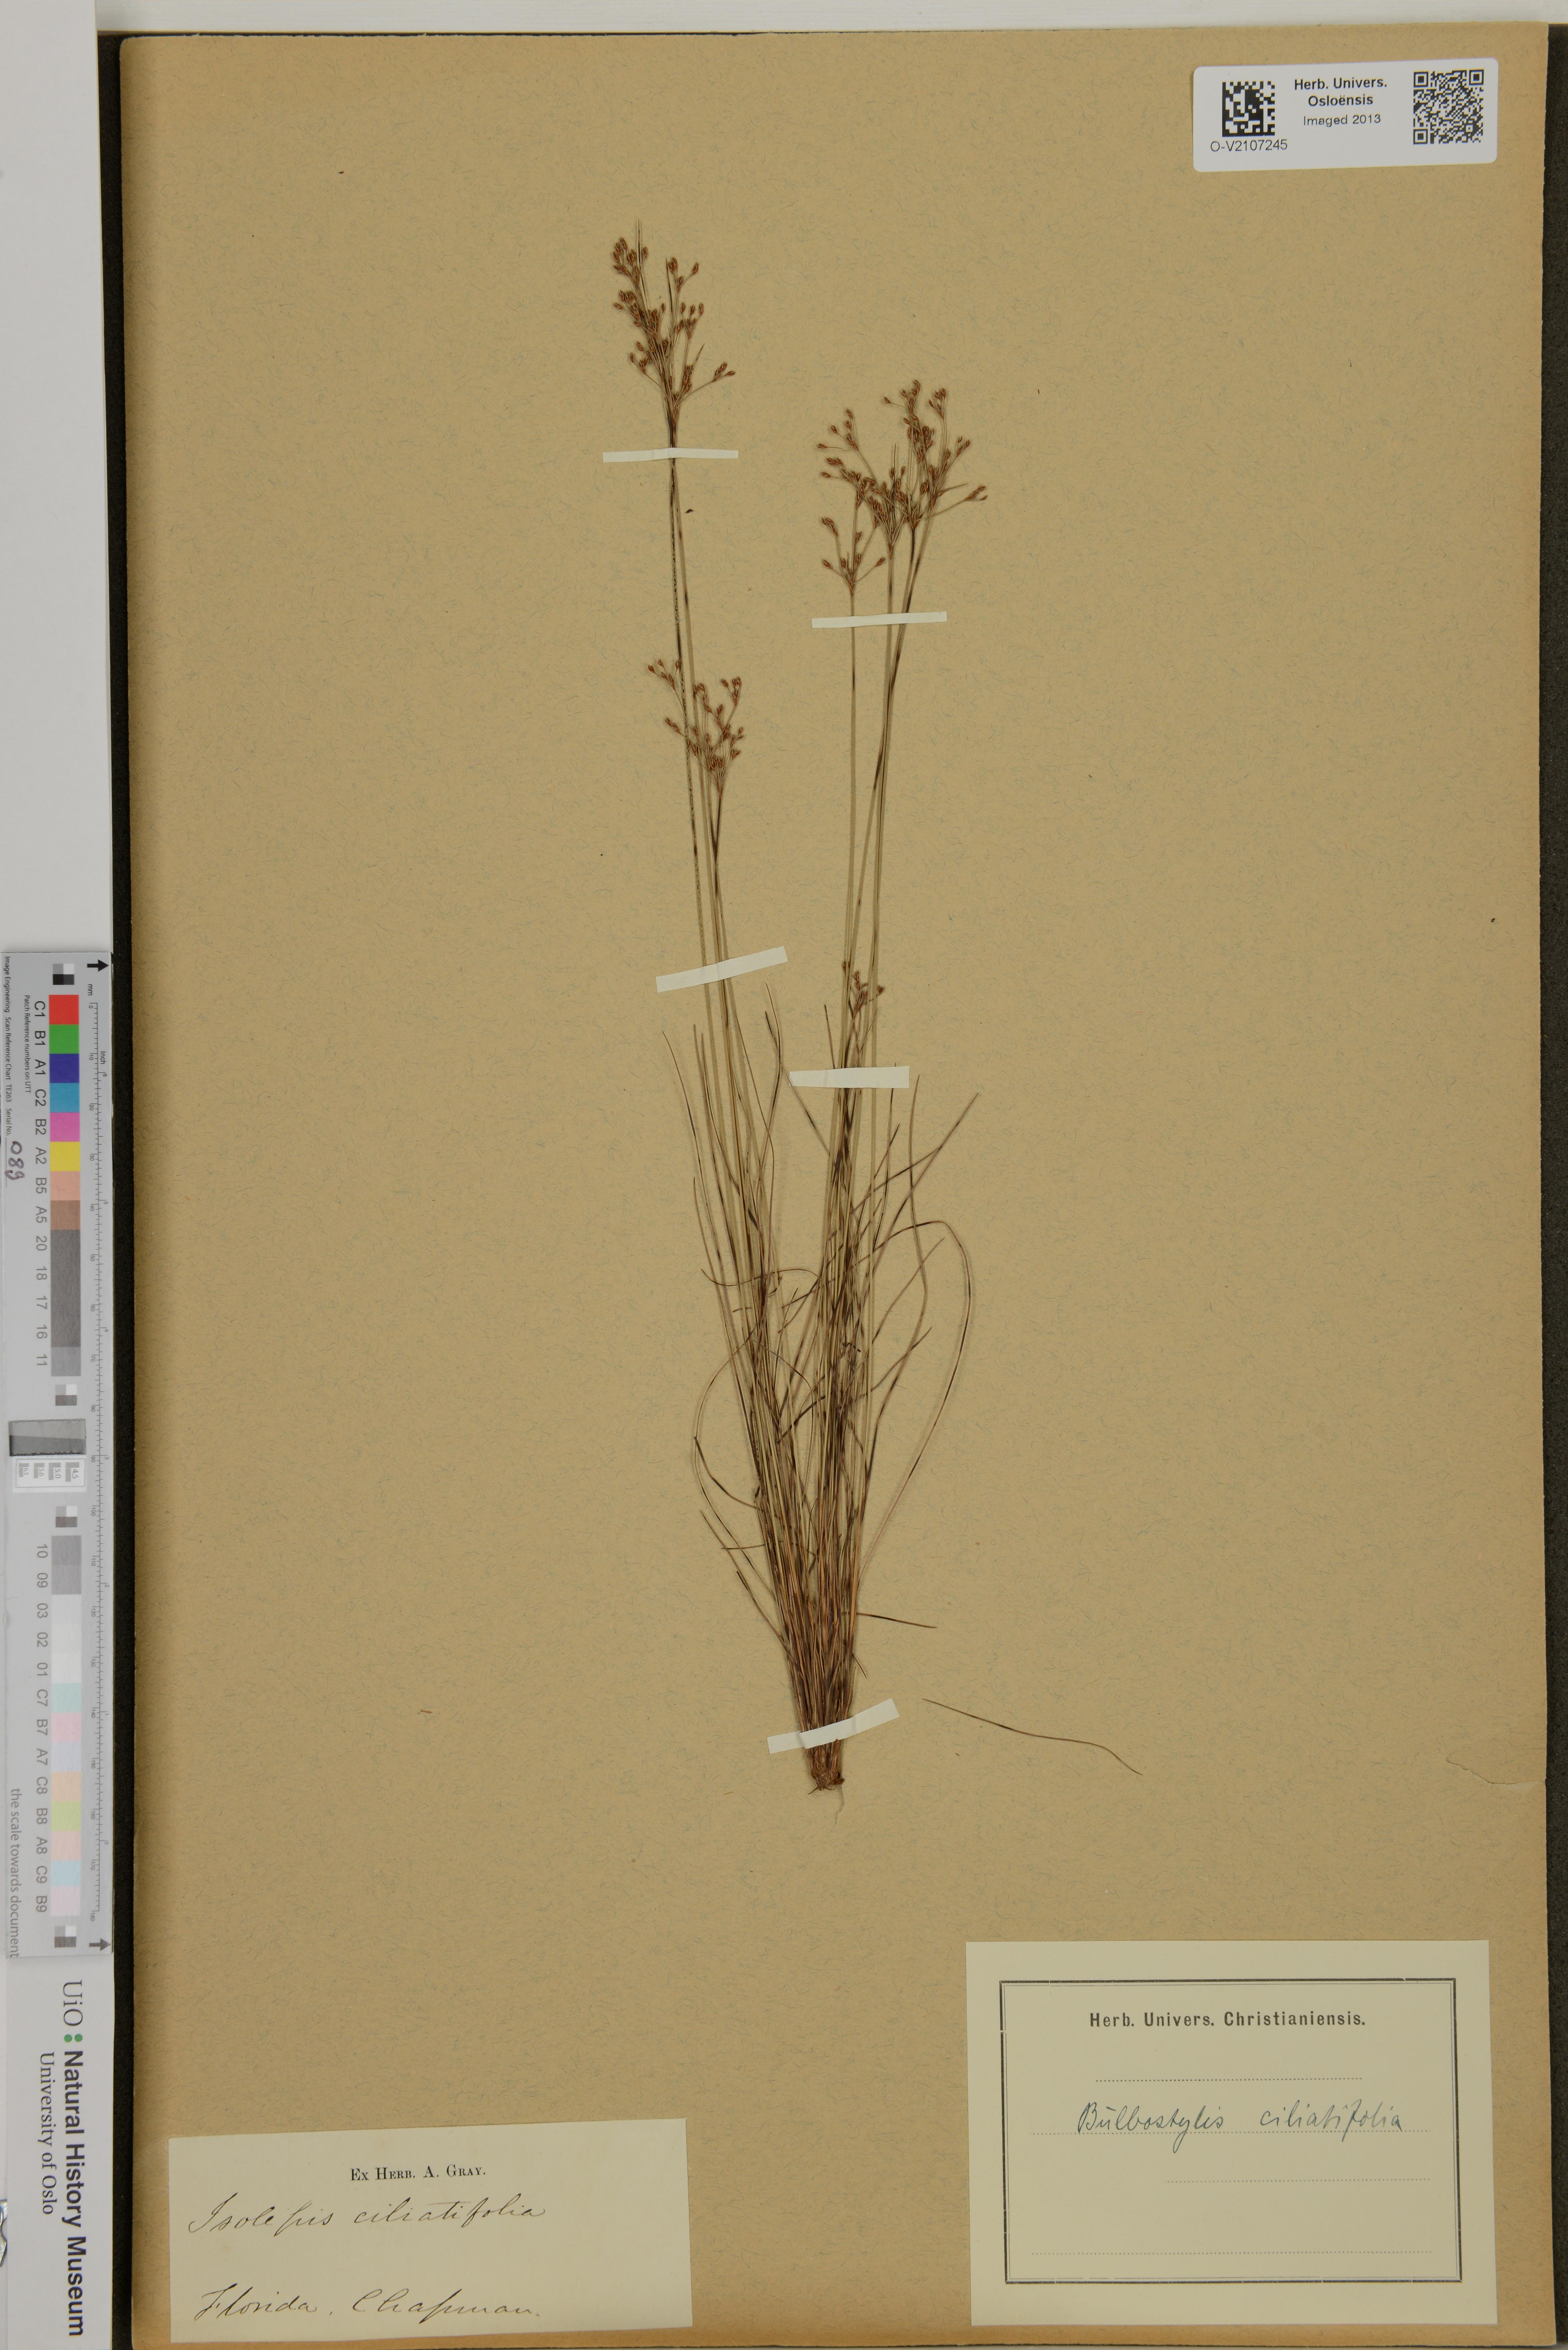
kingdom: Plantae
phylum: Tracheophyta
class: Liliopsida
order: Poales
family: Cyperaceae
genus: Bulbostylis
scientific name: Bulbostylis ciliatifolia
